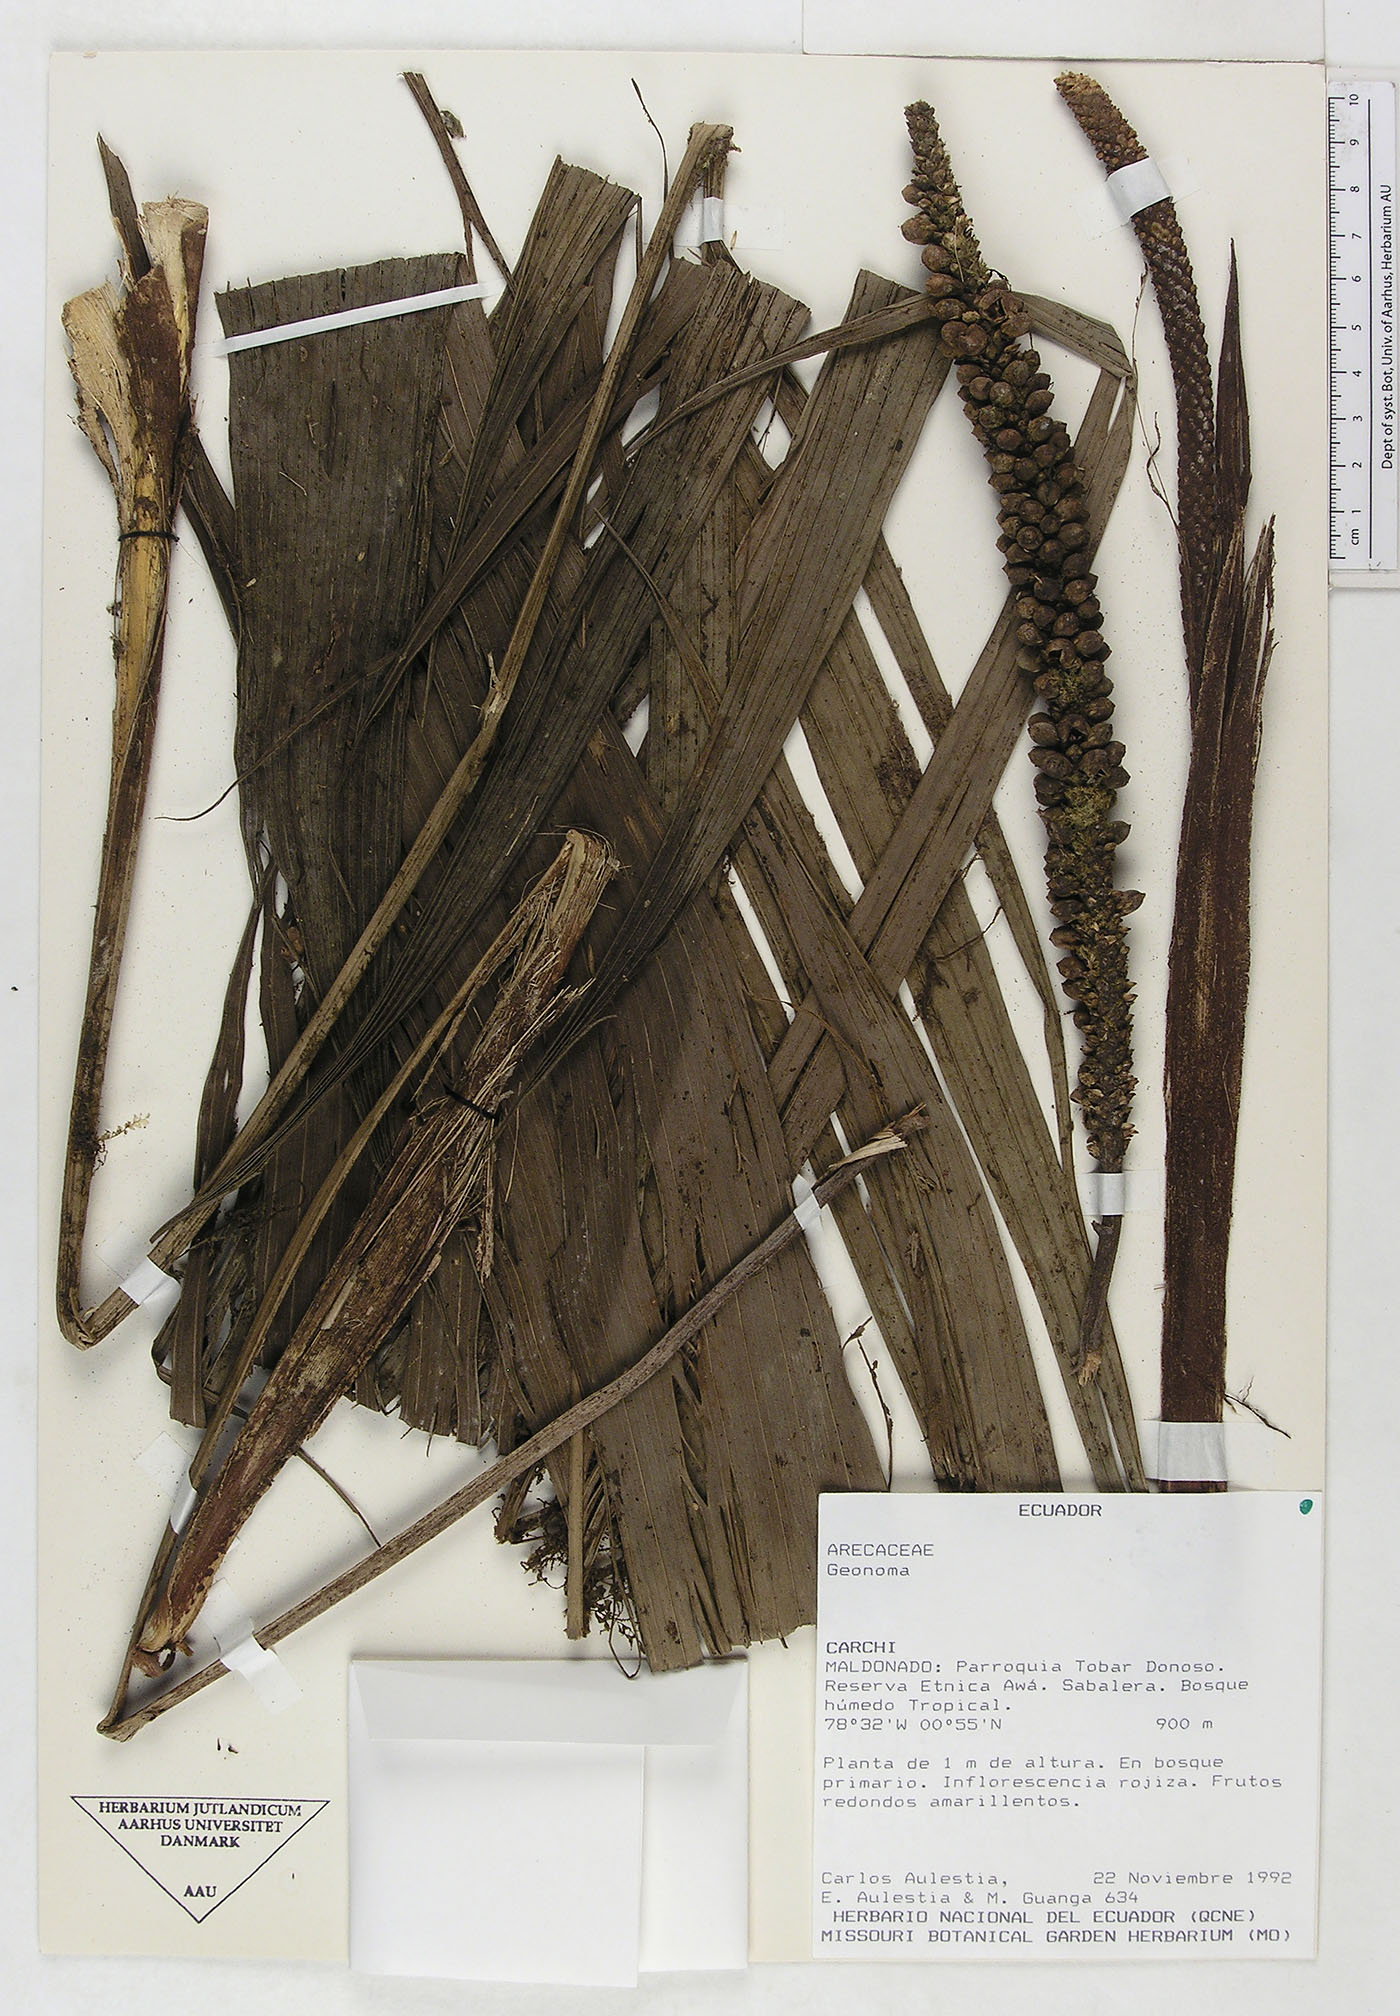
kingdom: Plantae
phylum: Tracheophyta
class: Liliopsida
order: Arecales
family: Arecaceae
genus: Geonoma
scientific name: Geonoma
